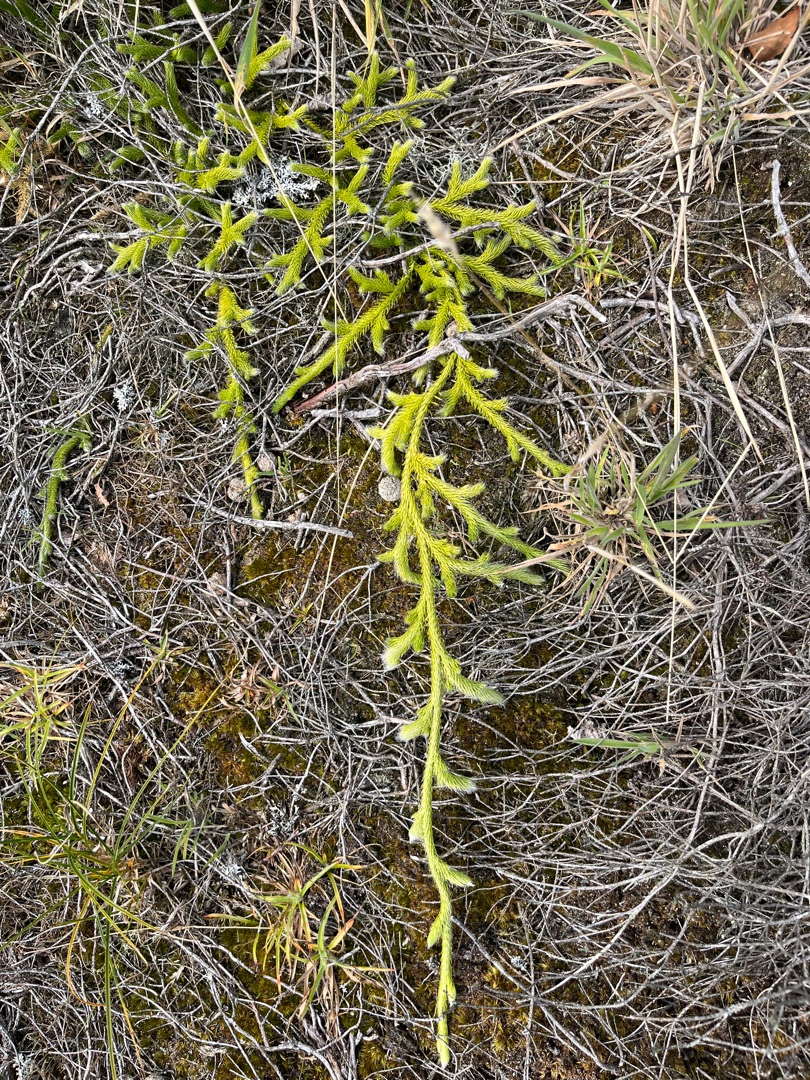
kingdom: Plantae
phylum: Tracheophyta
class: Lycopodiopsida
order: Lycopodiales
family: Lycopodiaceae
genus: Lycopodium
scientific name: Lycopodium clavatum
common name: Almindelig ulvefod
